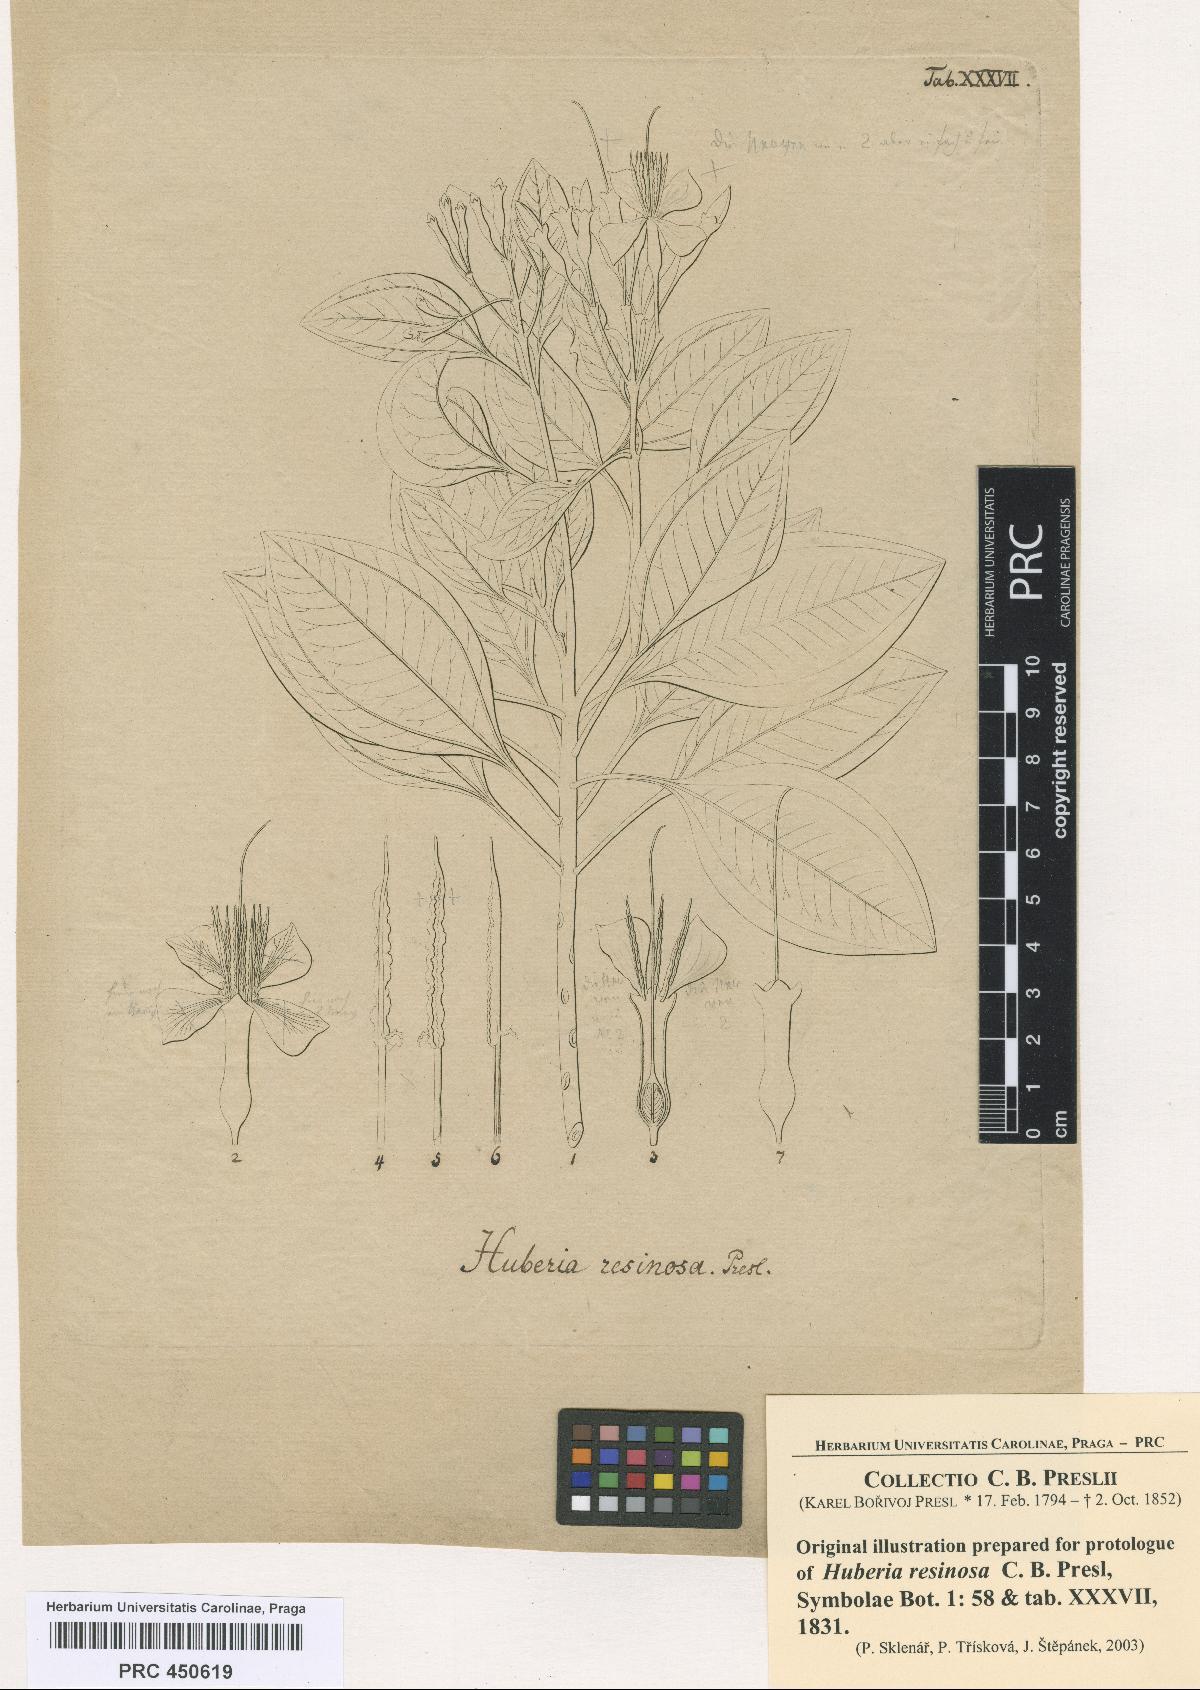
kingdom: Plantae
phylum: Tracheophyta
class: Magnoliopsida
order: Myrtales
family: Melastomataceae
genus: Huberia
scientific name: Huberia ovalifolia
